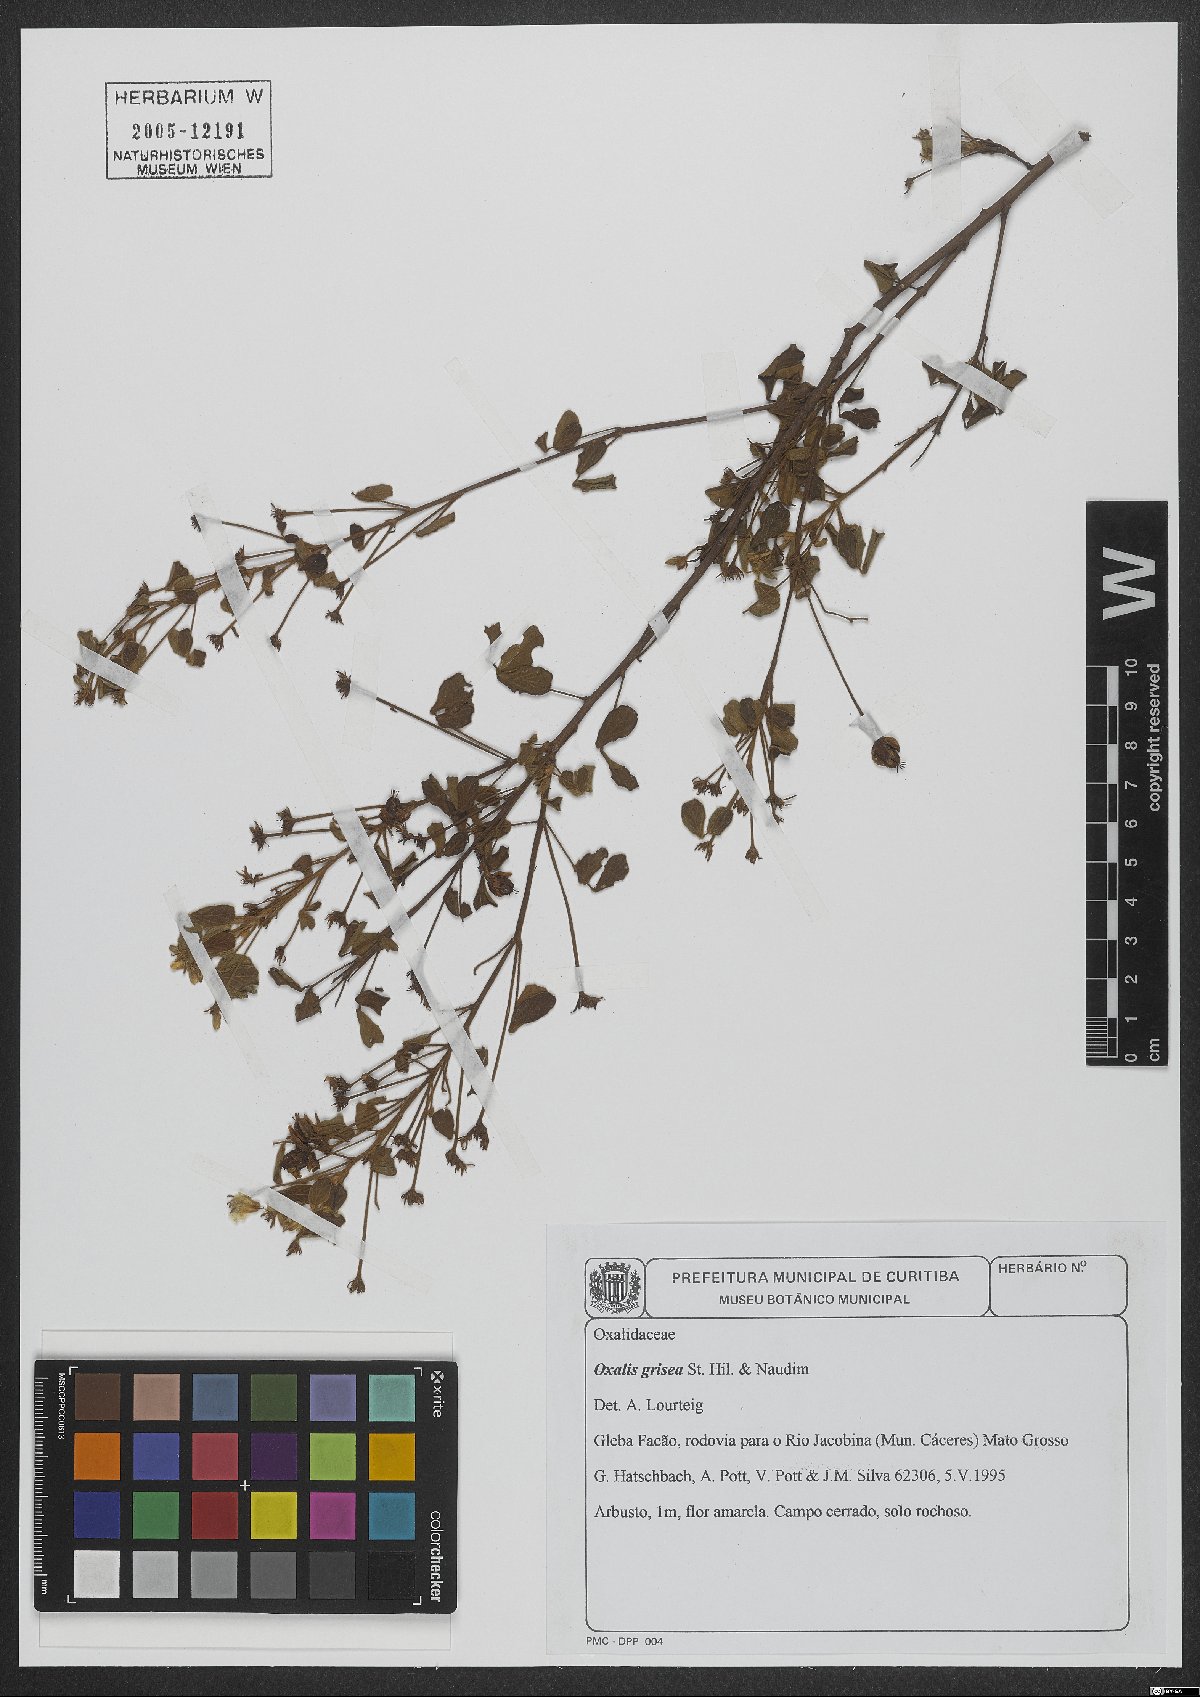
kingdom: Plantae
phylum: Tracheophyta
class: Magnoliopsida
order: Oxalidales
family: Oxalidaceae
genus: Oxalis
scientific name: Oxalis grisea
